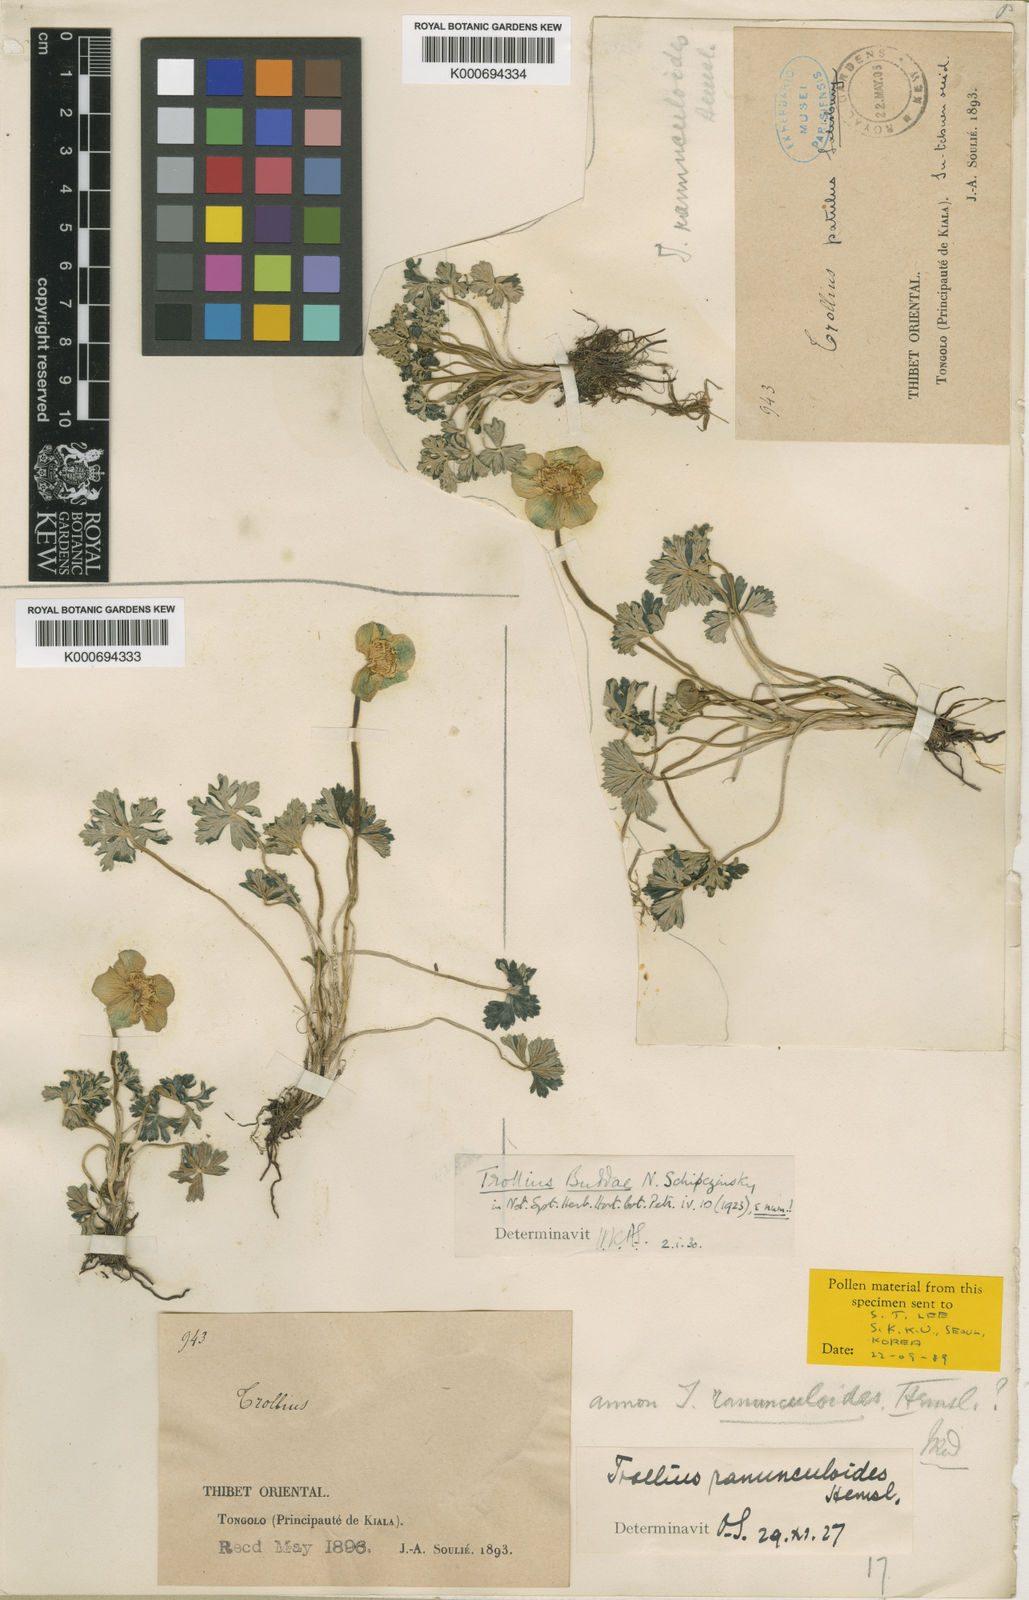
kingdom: Plantae
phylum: Tracheophyta
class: Magnoliopsida
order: Ranunculales
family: Ranunculaceae
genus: Trollius
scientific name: Trollius buddae
